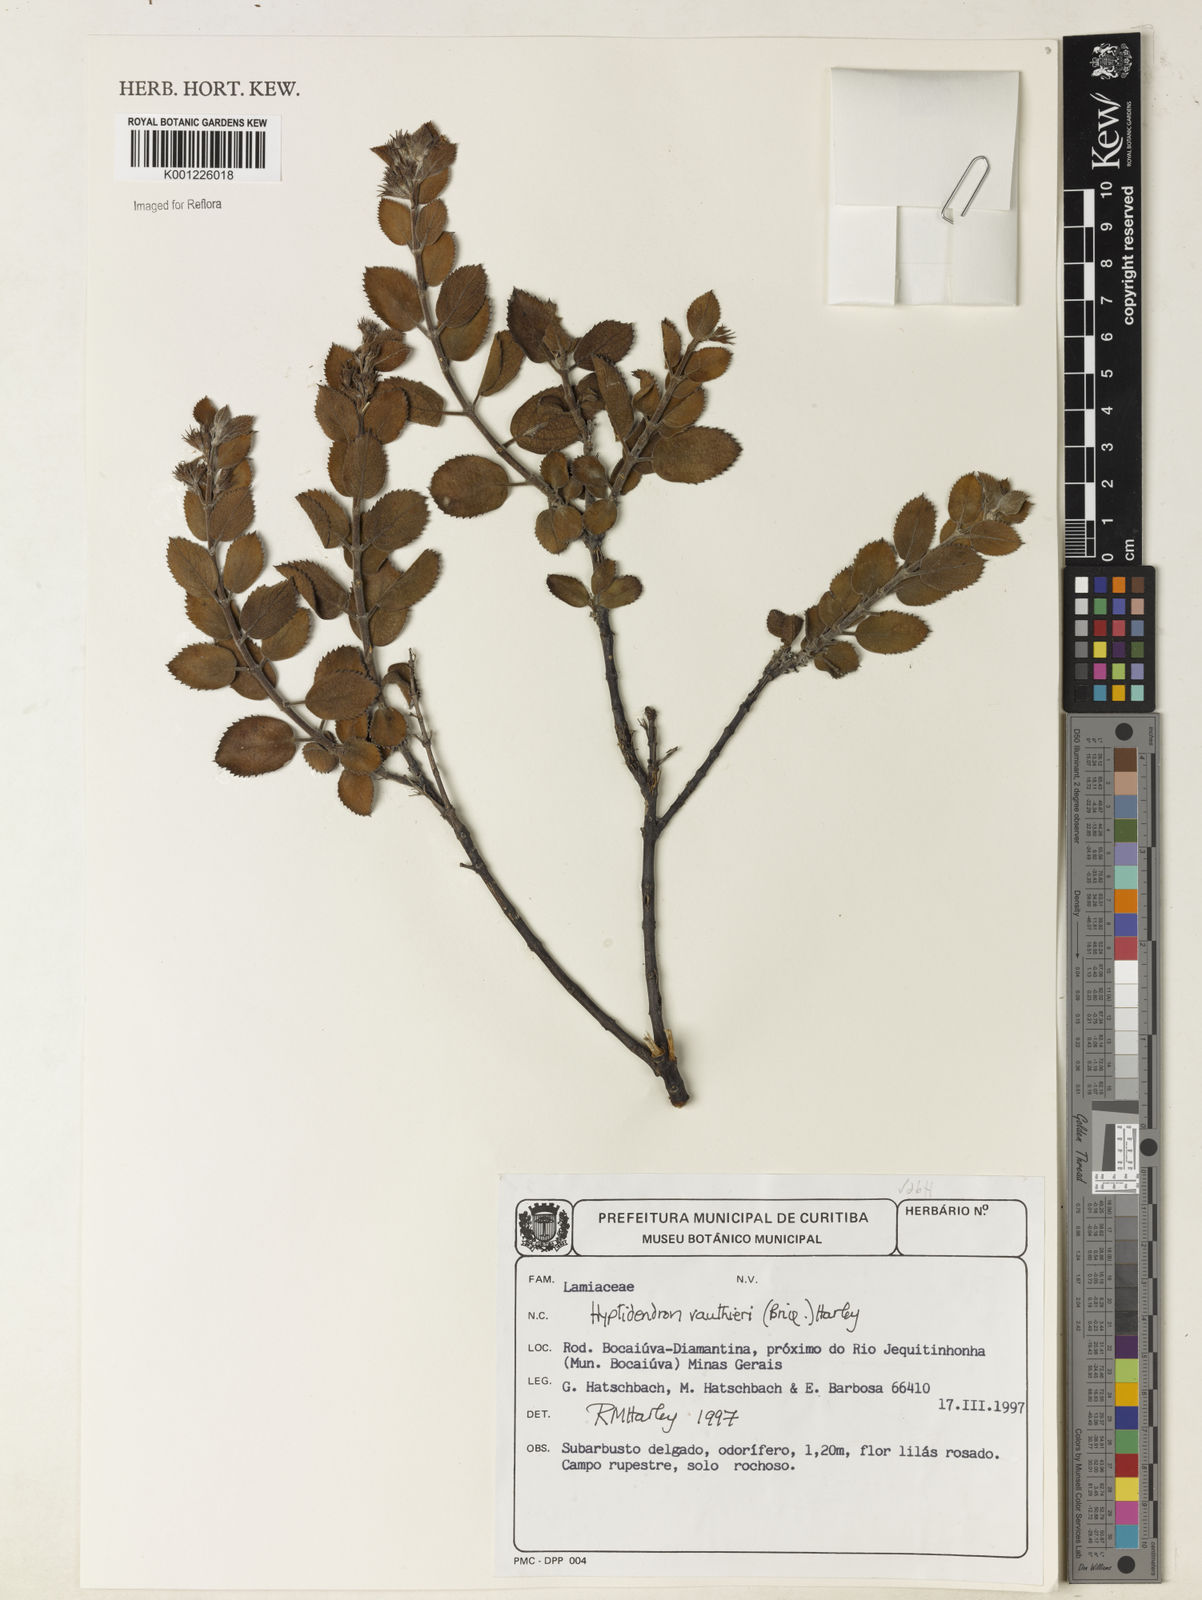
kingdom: Plantae
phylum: Tracheophyta
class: Magnoliopsida
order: Lamiales
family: Lamiaceae
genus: Hyptidendron
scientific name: Hyptidendron vauthieri
